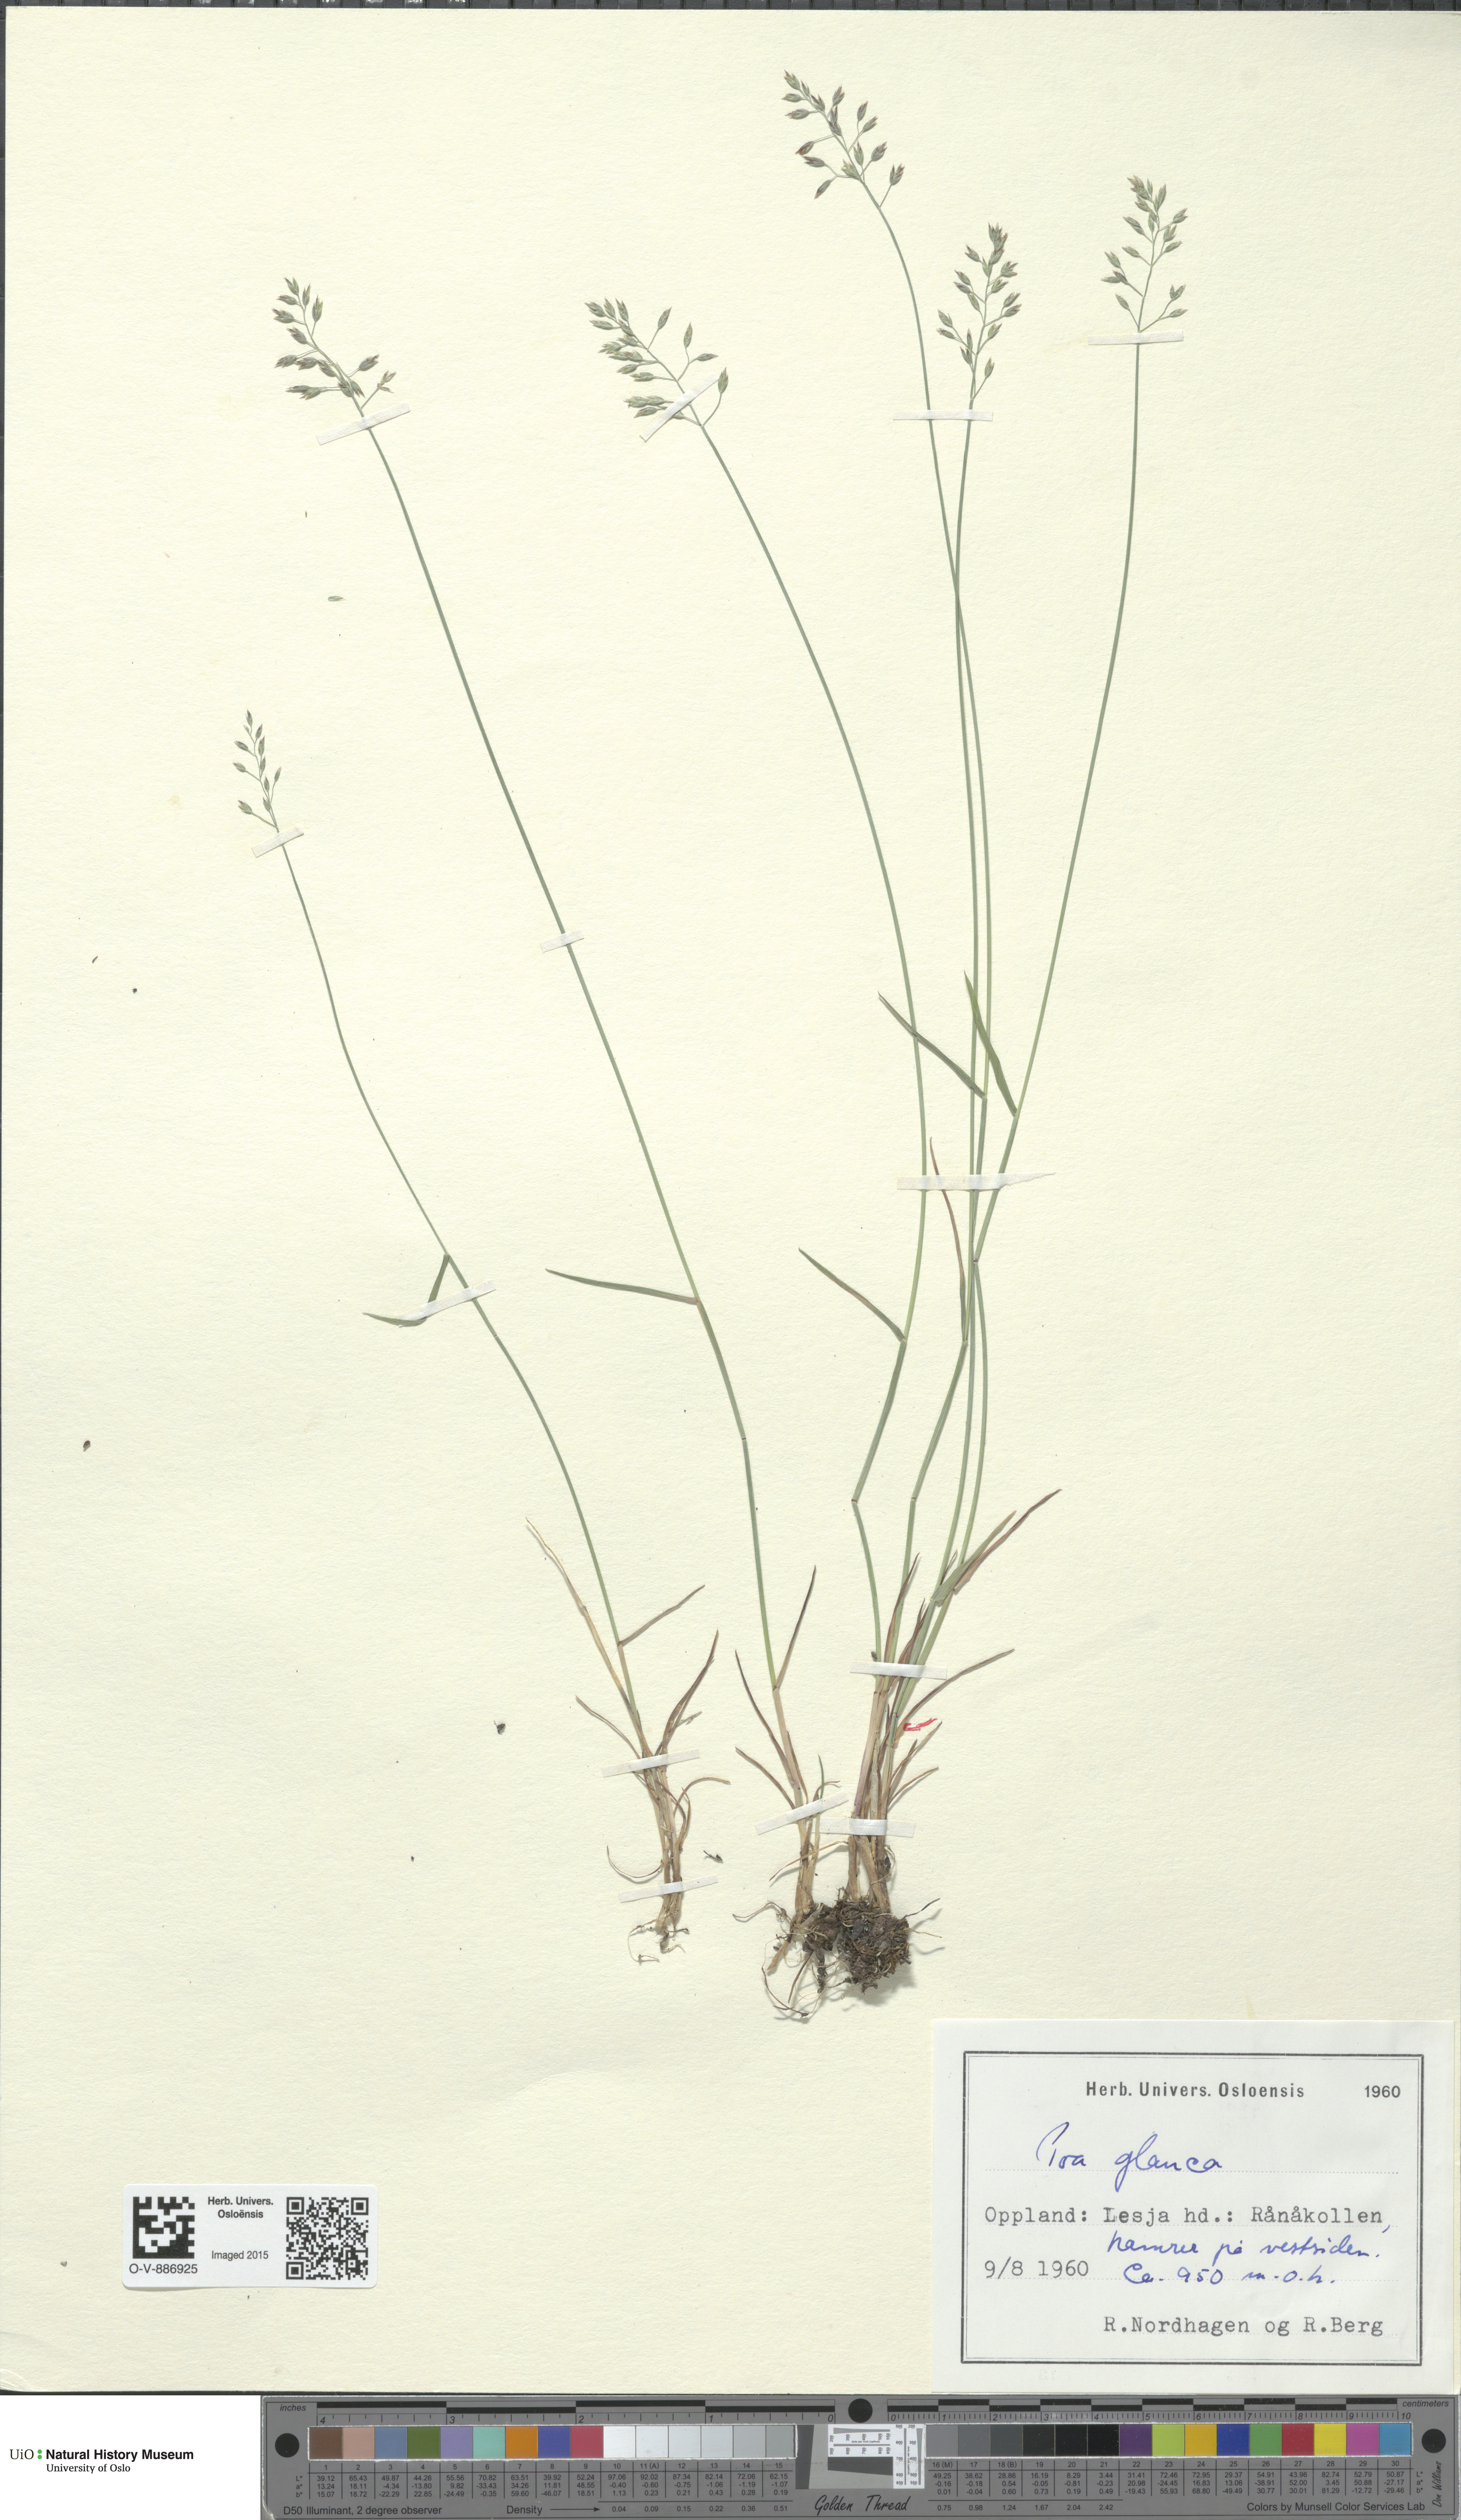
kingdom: Plantae
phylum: Tracheophyta
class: Liliopsida
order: Poales
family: Poaceae
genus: Poa
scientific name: Poa glauca
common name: Glaucous bluegrass
